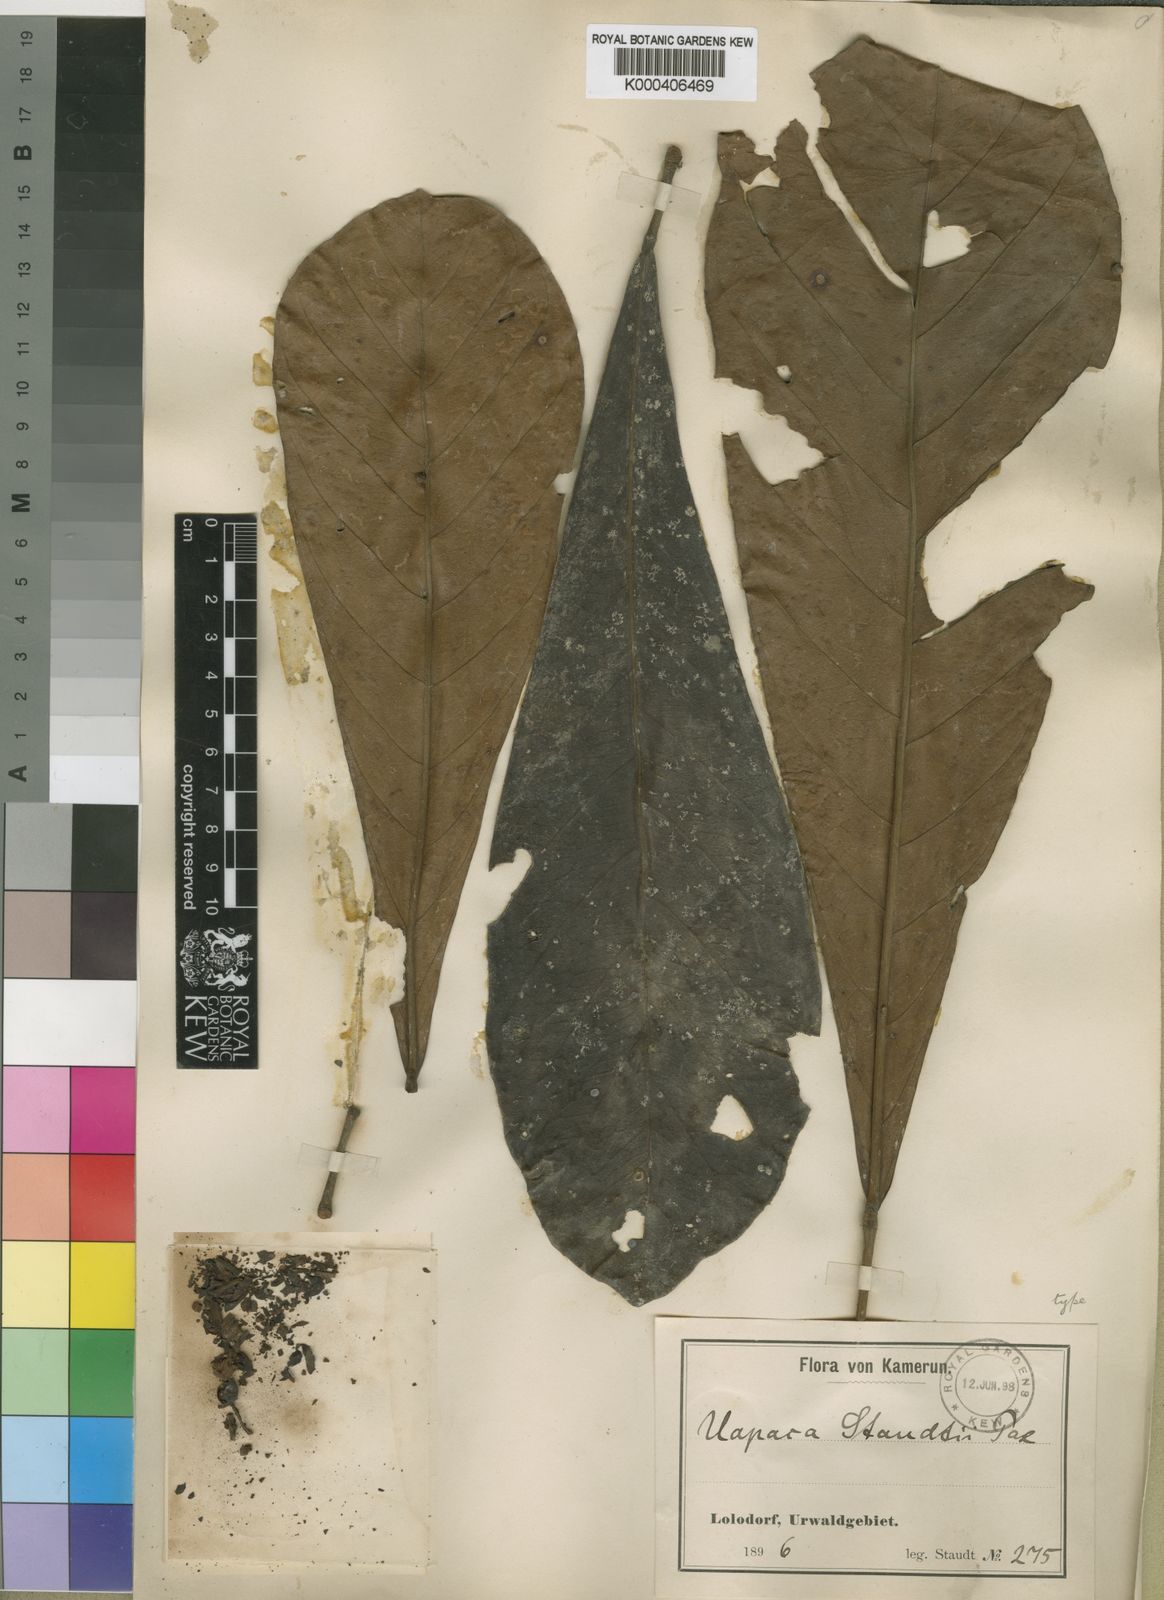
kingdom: Plantae
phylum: Tracheophyta
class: Magnoliopsida
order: Malpighiales
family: Phyllanthaceae
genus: Uapaca
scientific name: Uapaca staudtii
